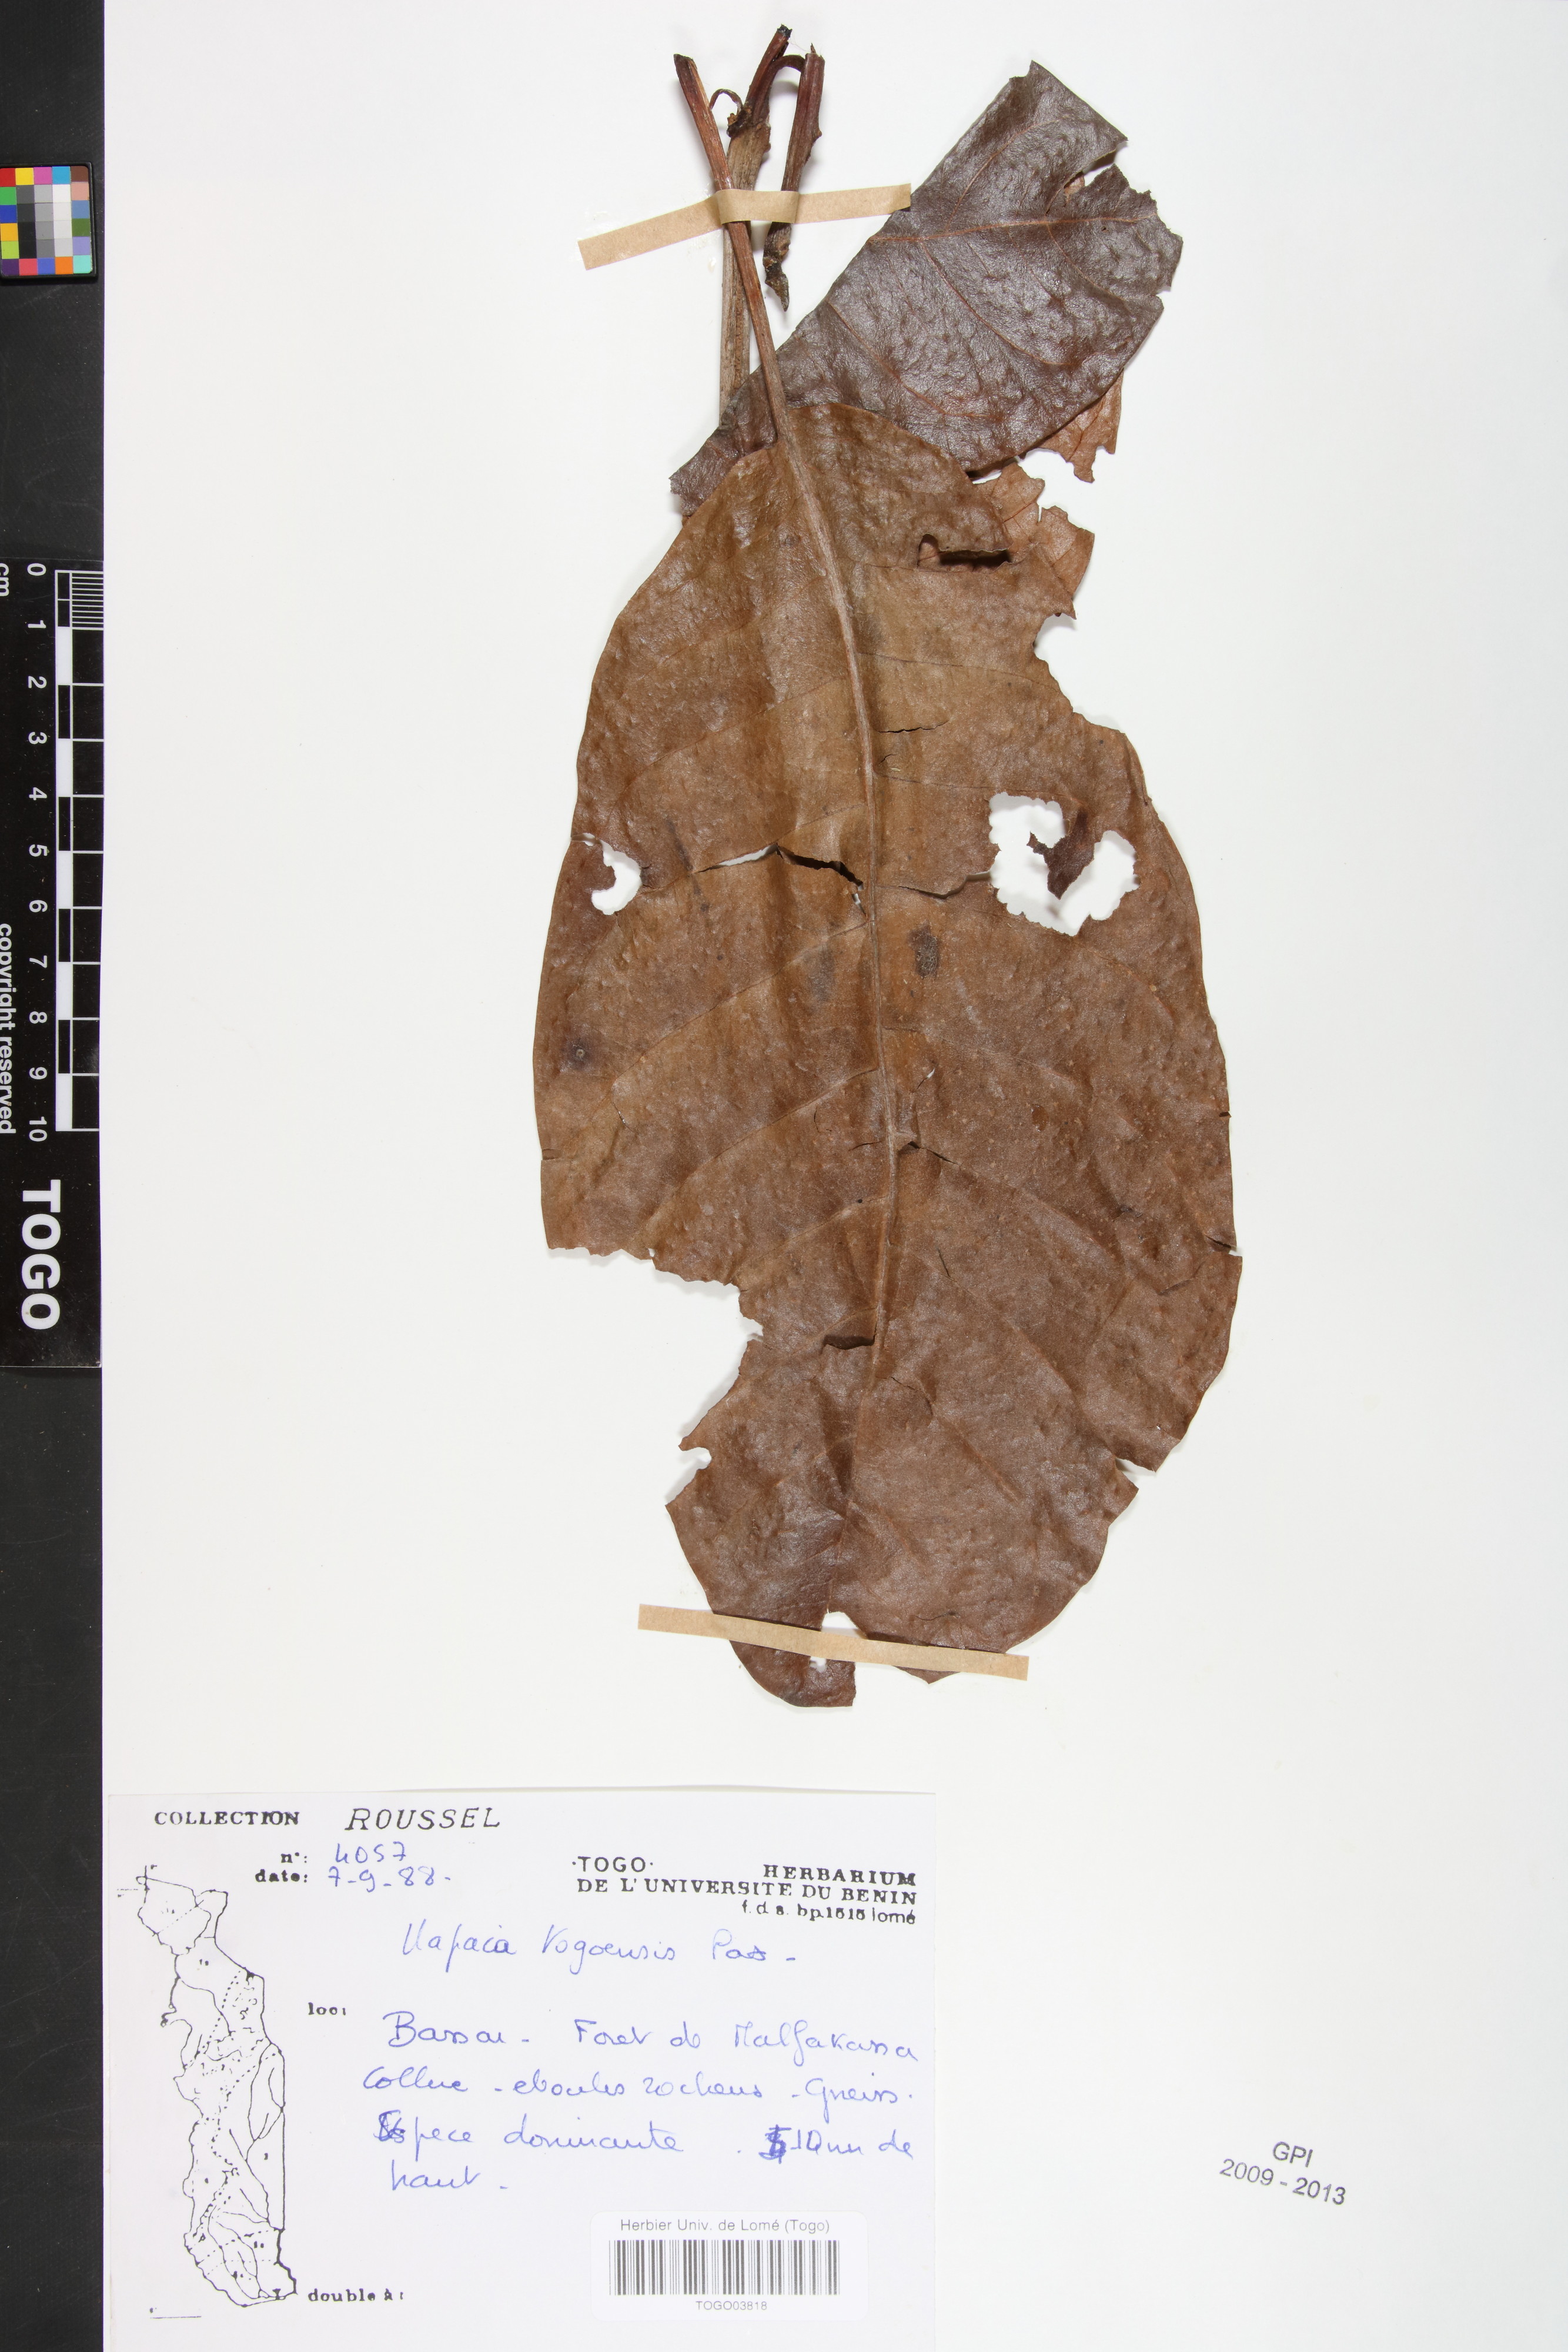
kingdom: Plantae
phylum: Tracheophyta
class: Magnoliopsida
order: Malpighiales
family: Phyllanthaceae
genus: Uapaca
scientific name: Uapaca togoensis
